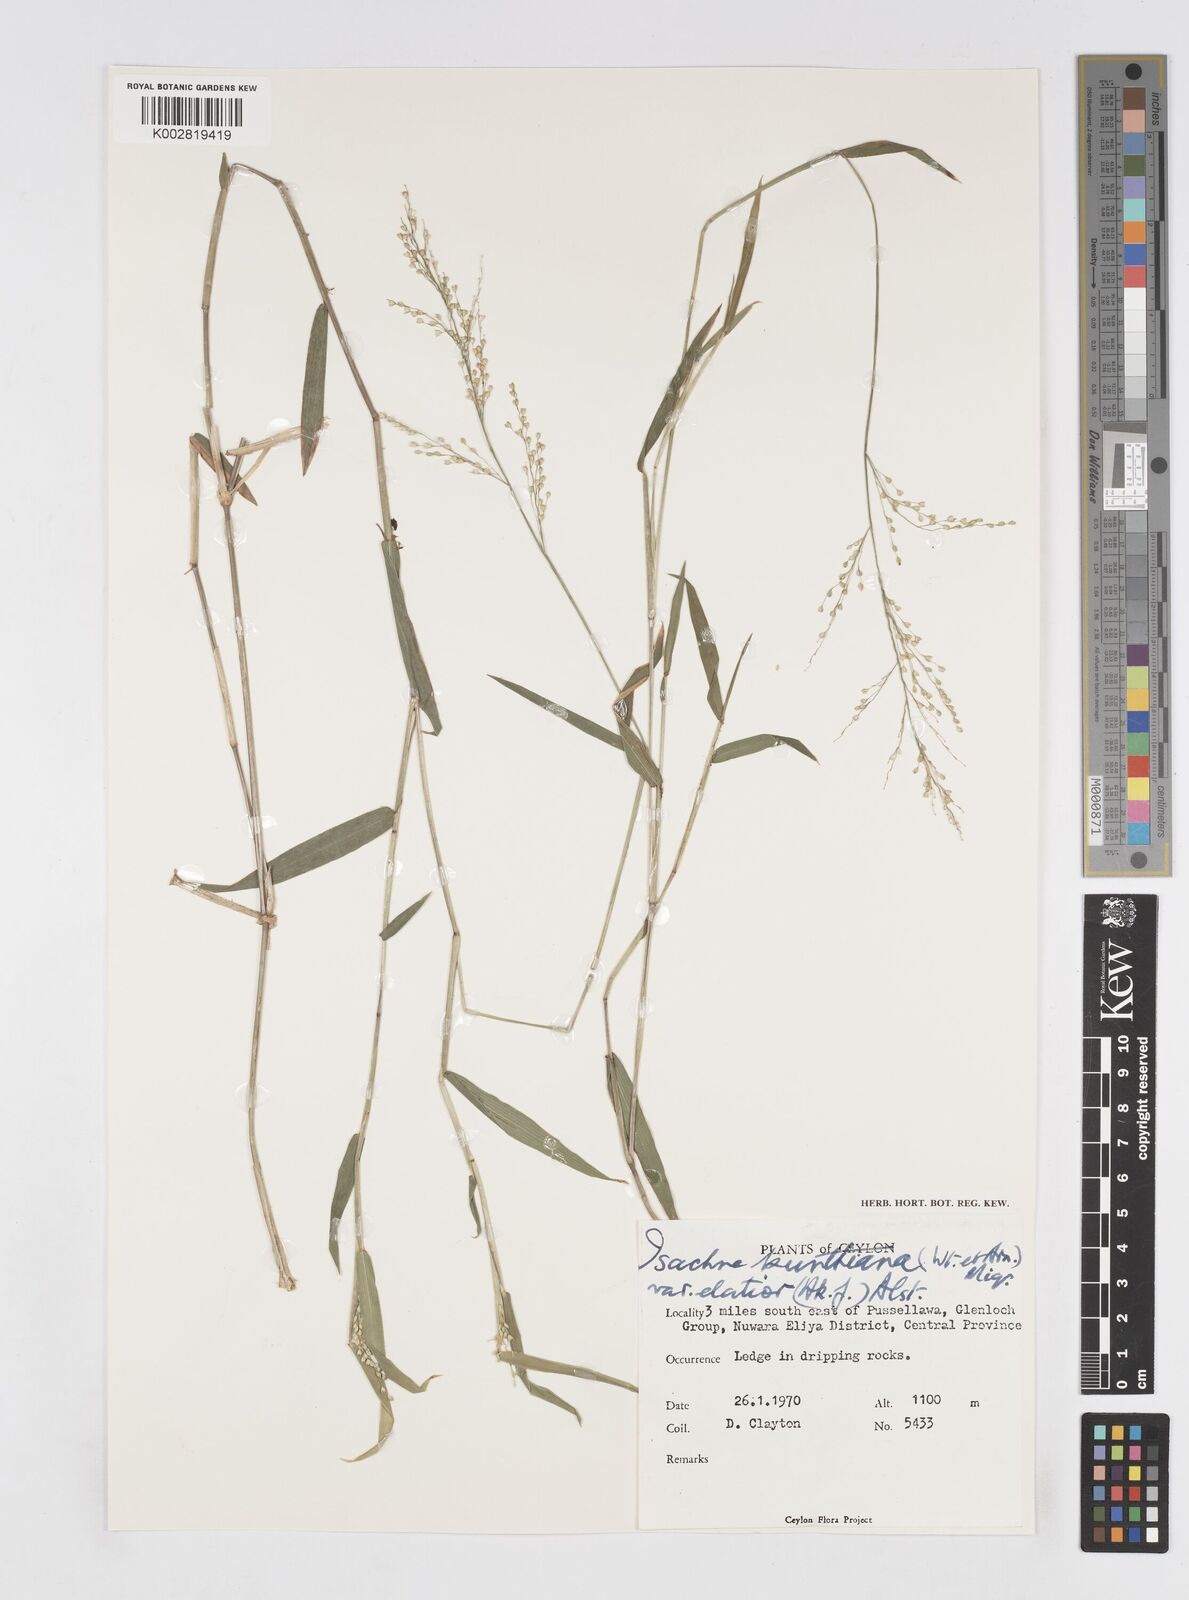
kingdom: Plantae
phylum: Tracheophyta
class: Liliopsida
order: Poales
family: Poaceae
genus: Isachne
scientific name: Isachne kunthiana
